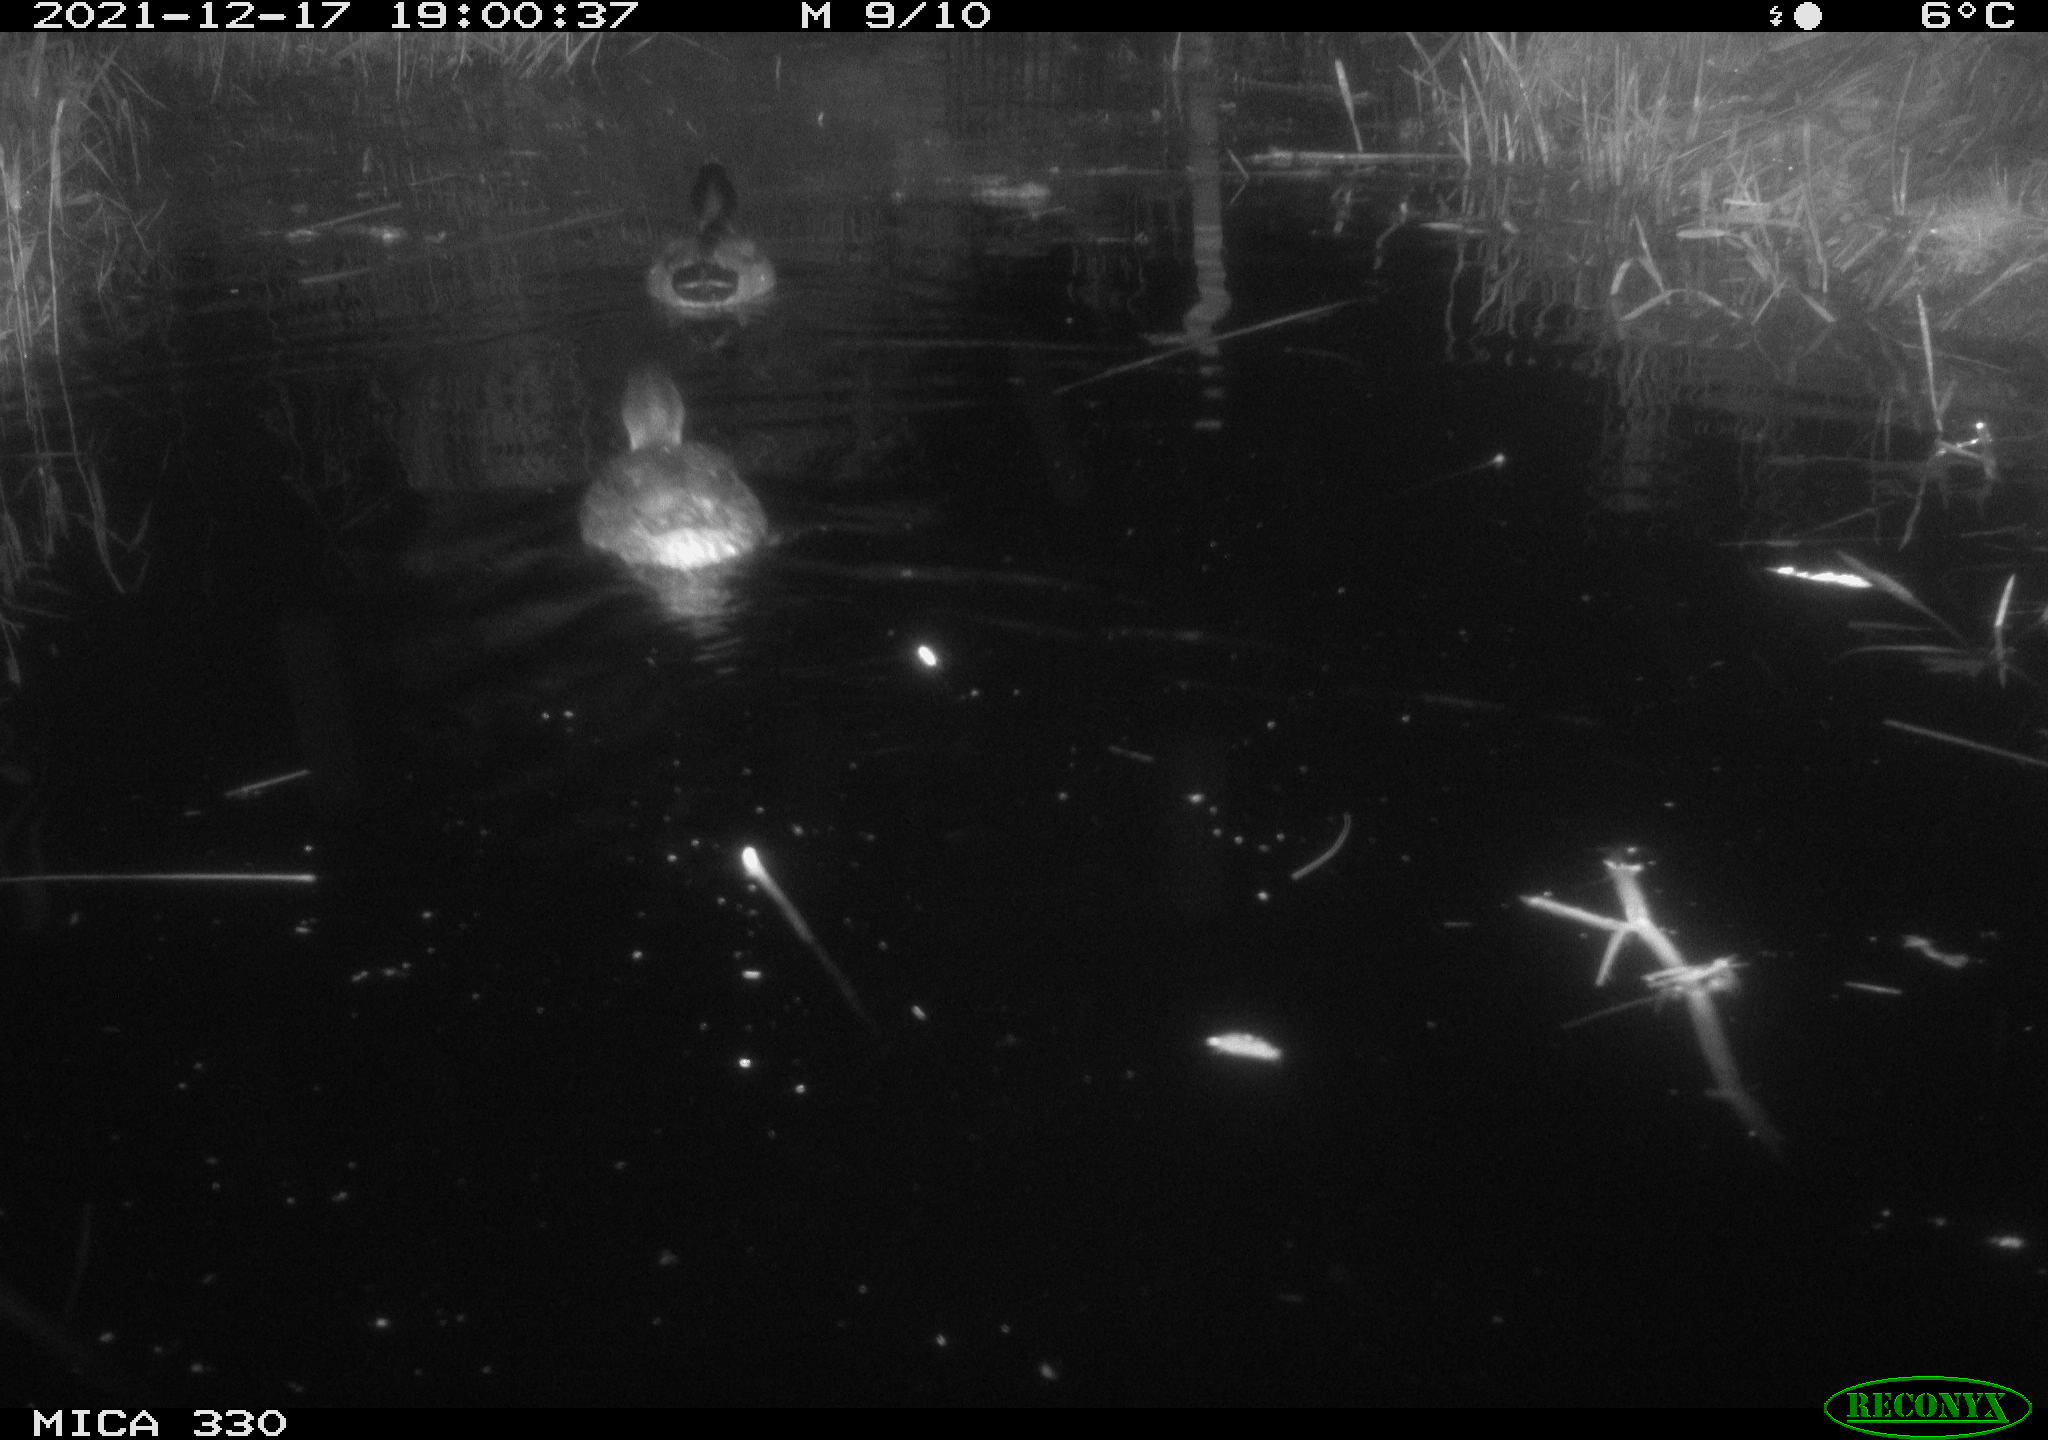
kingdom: Animalia
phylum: Chordata
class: Aves
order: Anseriformes
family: Anatidae
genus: Anas
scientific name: Anas platyrhynchos
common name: Mallard
